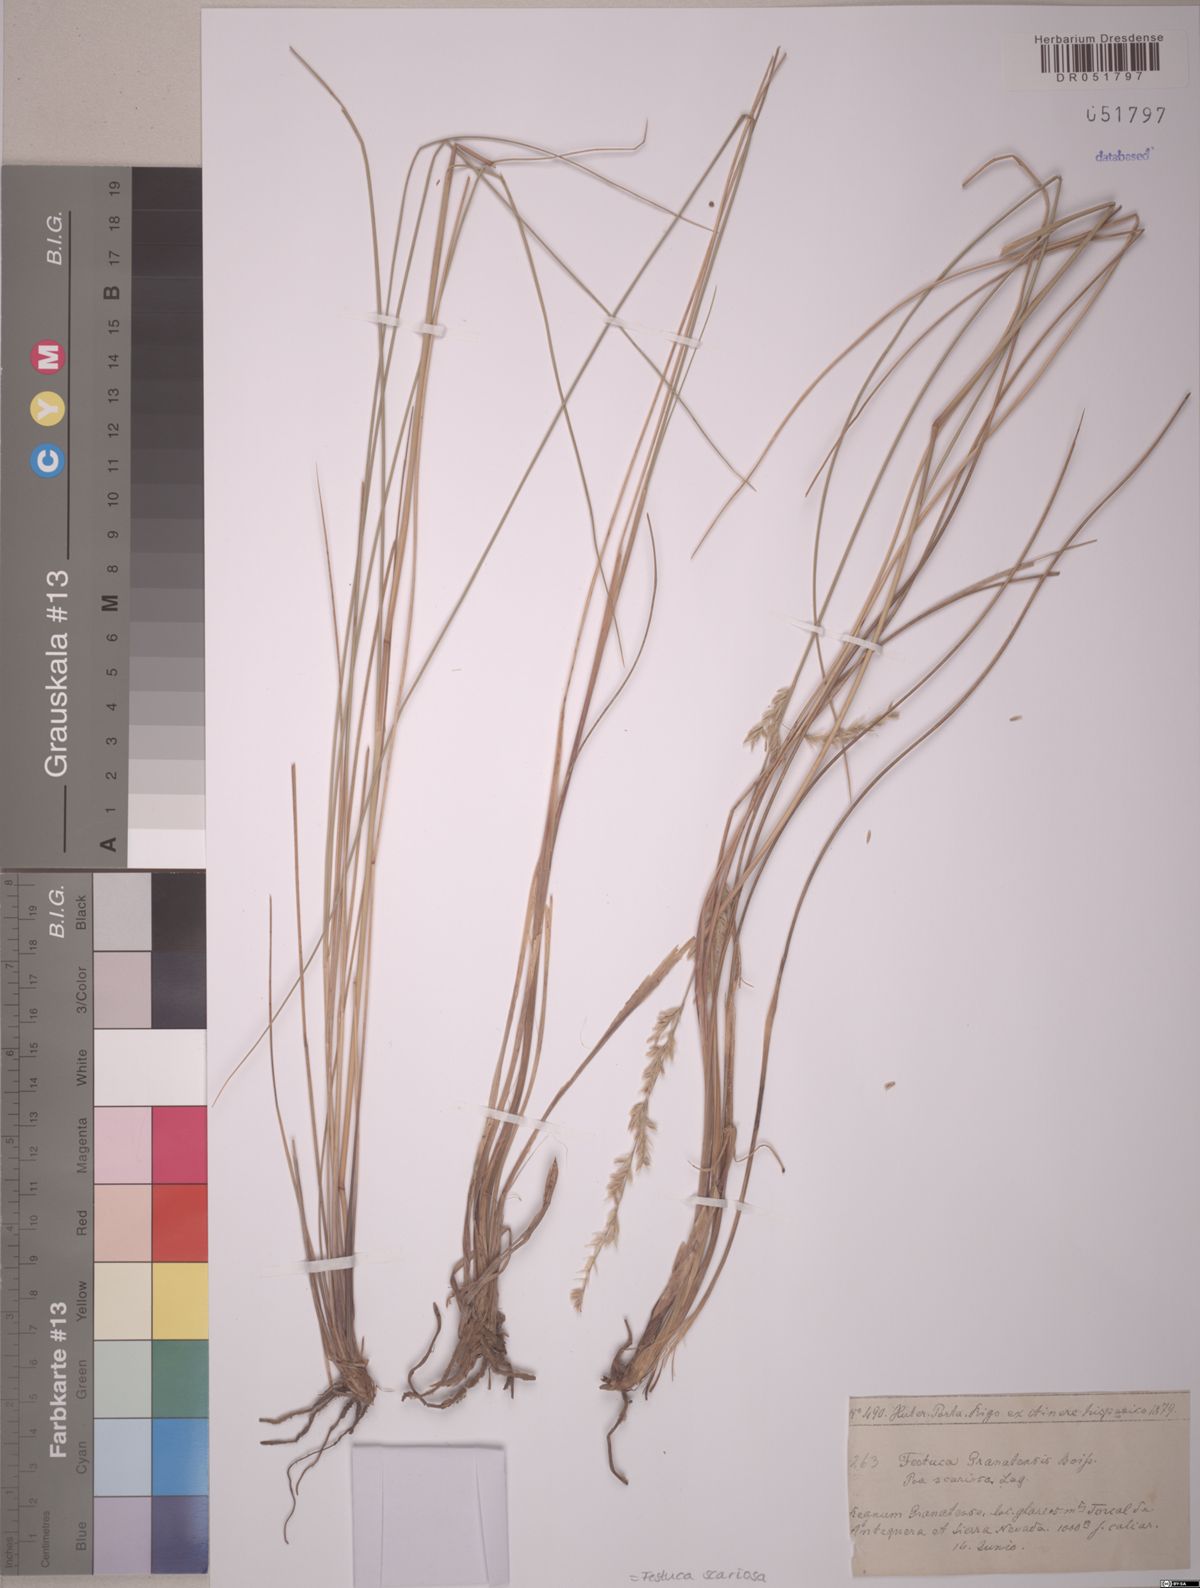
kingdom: Plantae
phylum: Tracheophyta
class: Liliopsida
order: Poales
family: Poaceae
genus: Festuca
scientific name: Festuca scariosa
